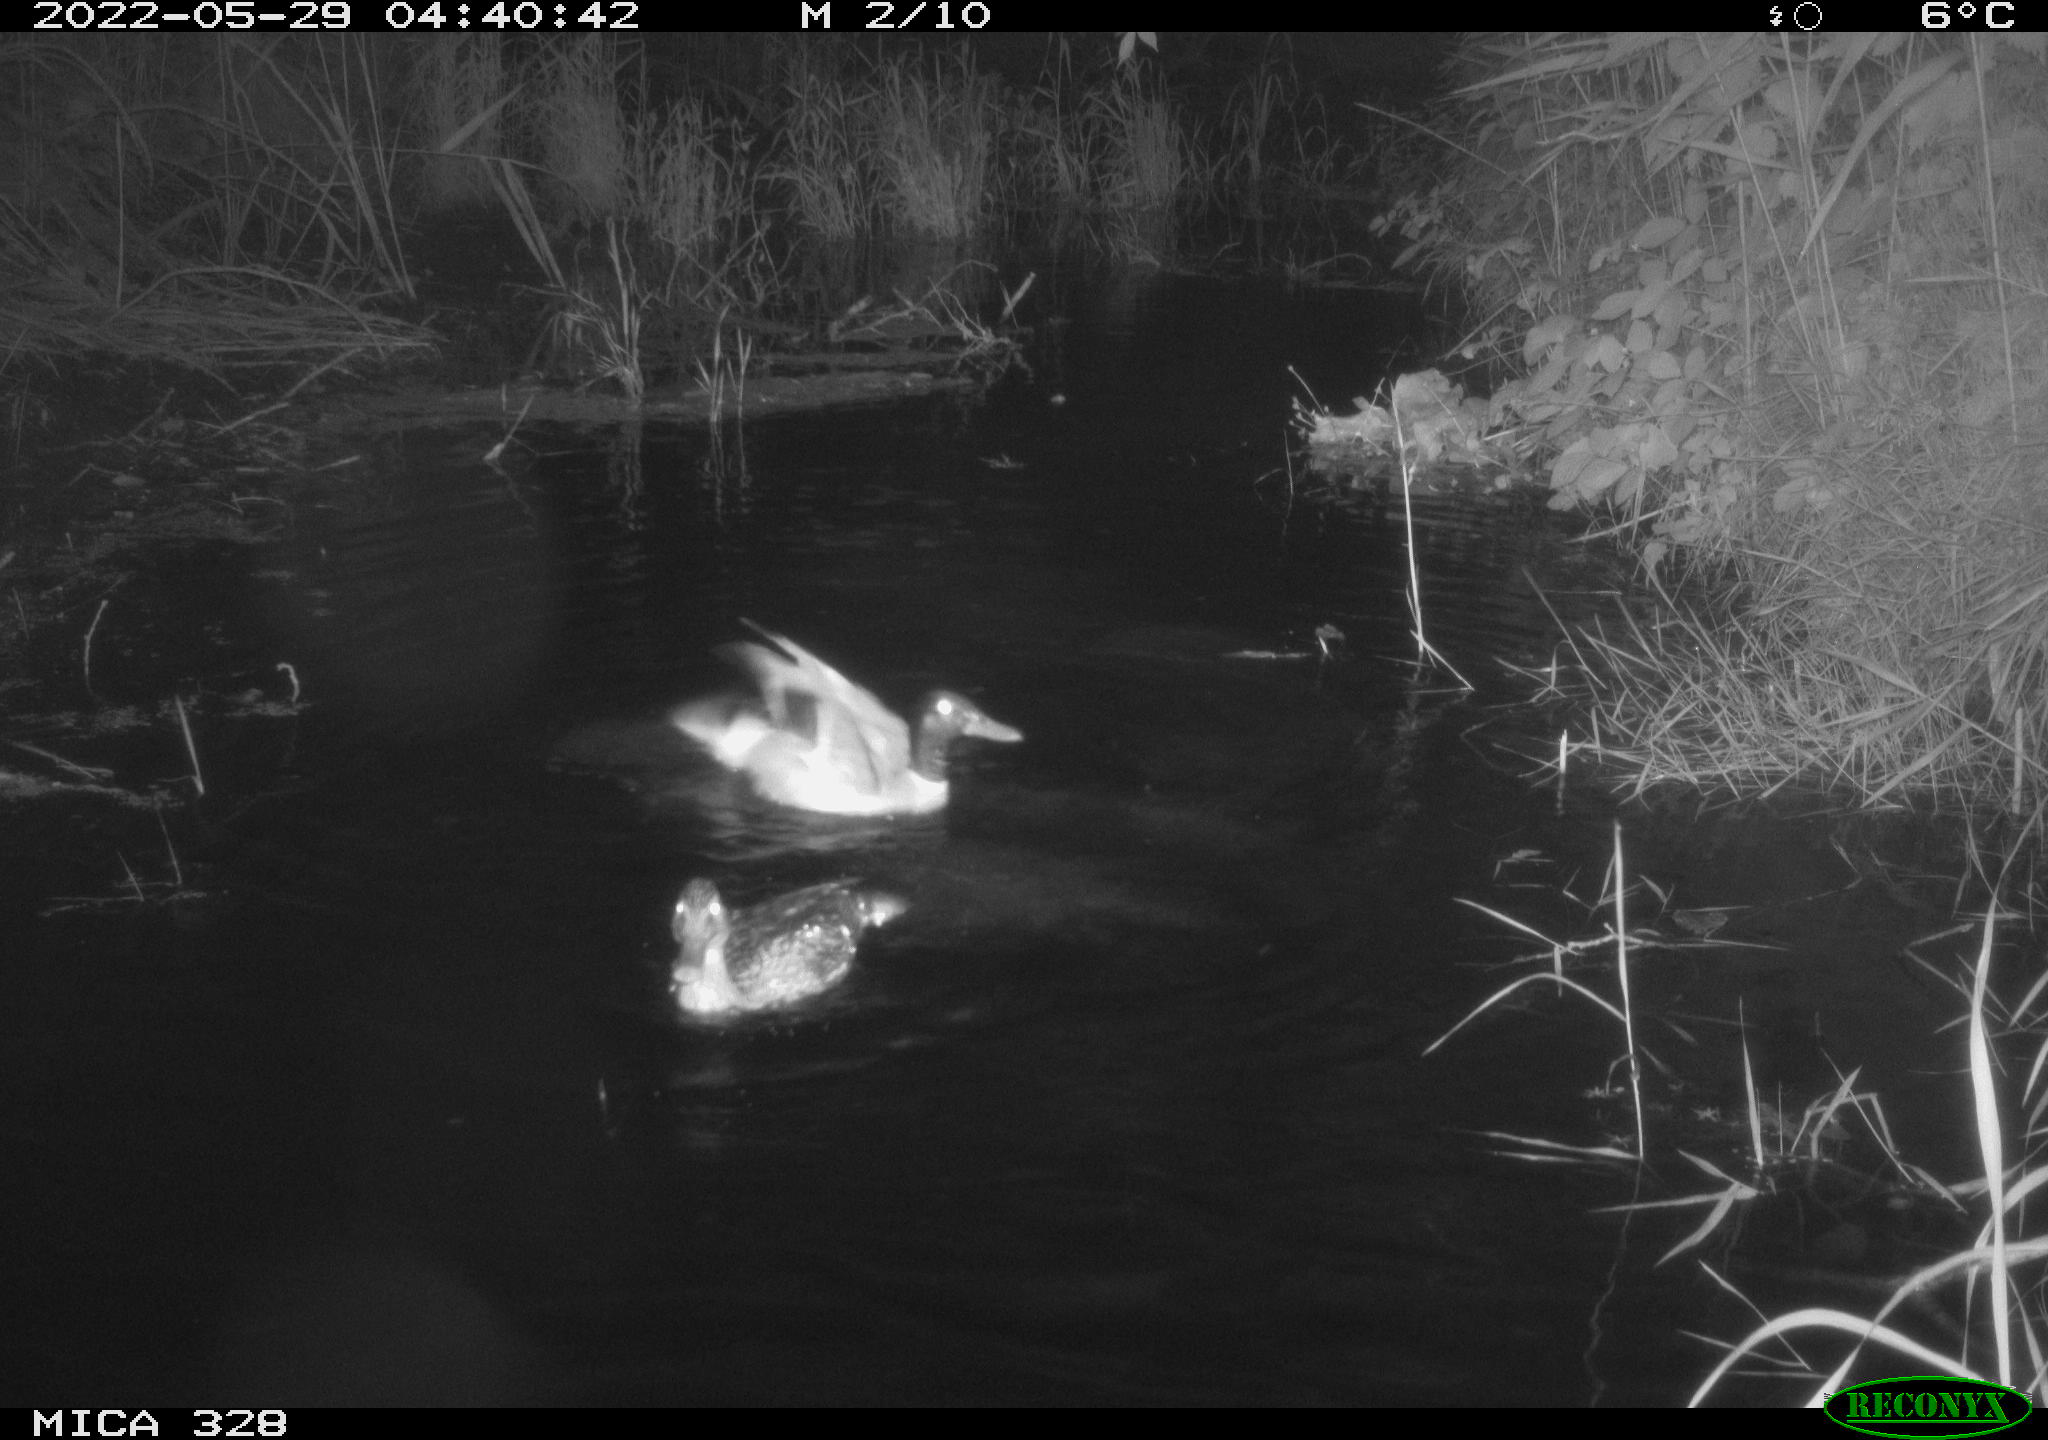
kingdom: Animalia
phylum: Chordata
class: Aves
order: Anseriformes
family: Anatidae
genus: Anas
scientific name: Anas platyrhynchos
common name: Mallard
